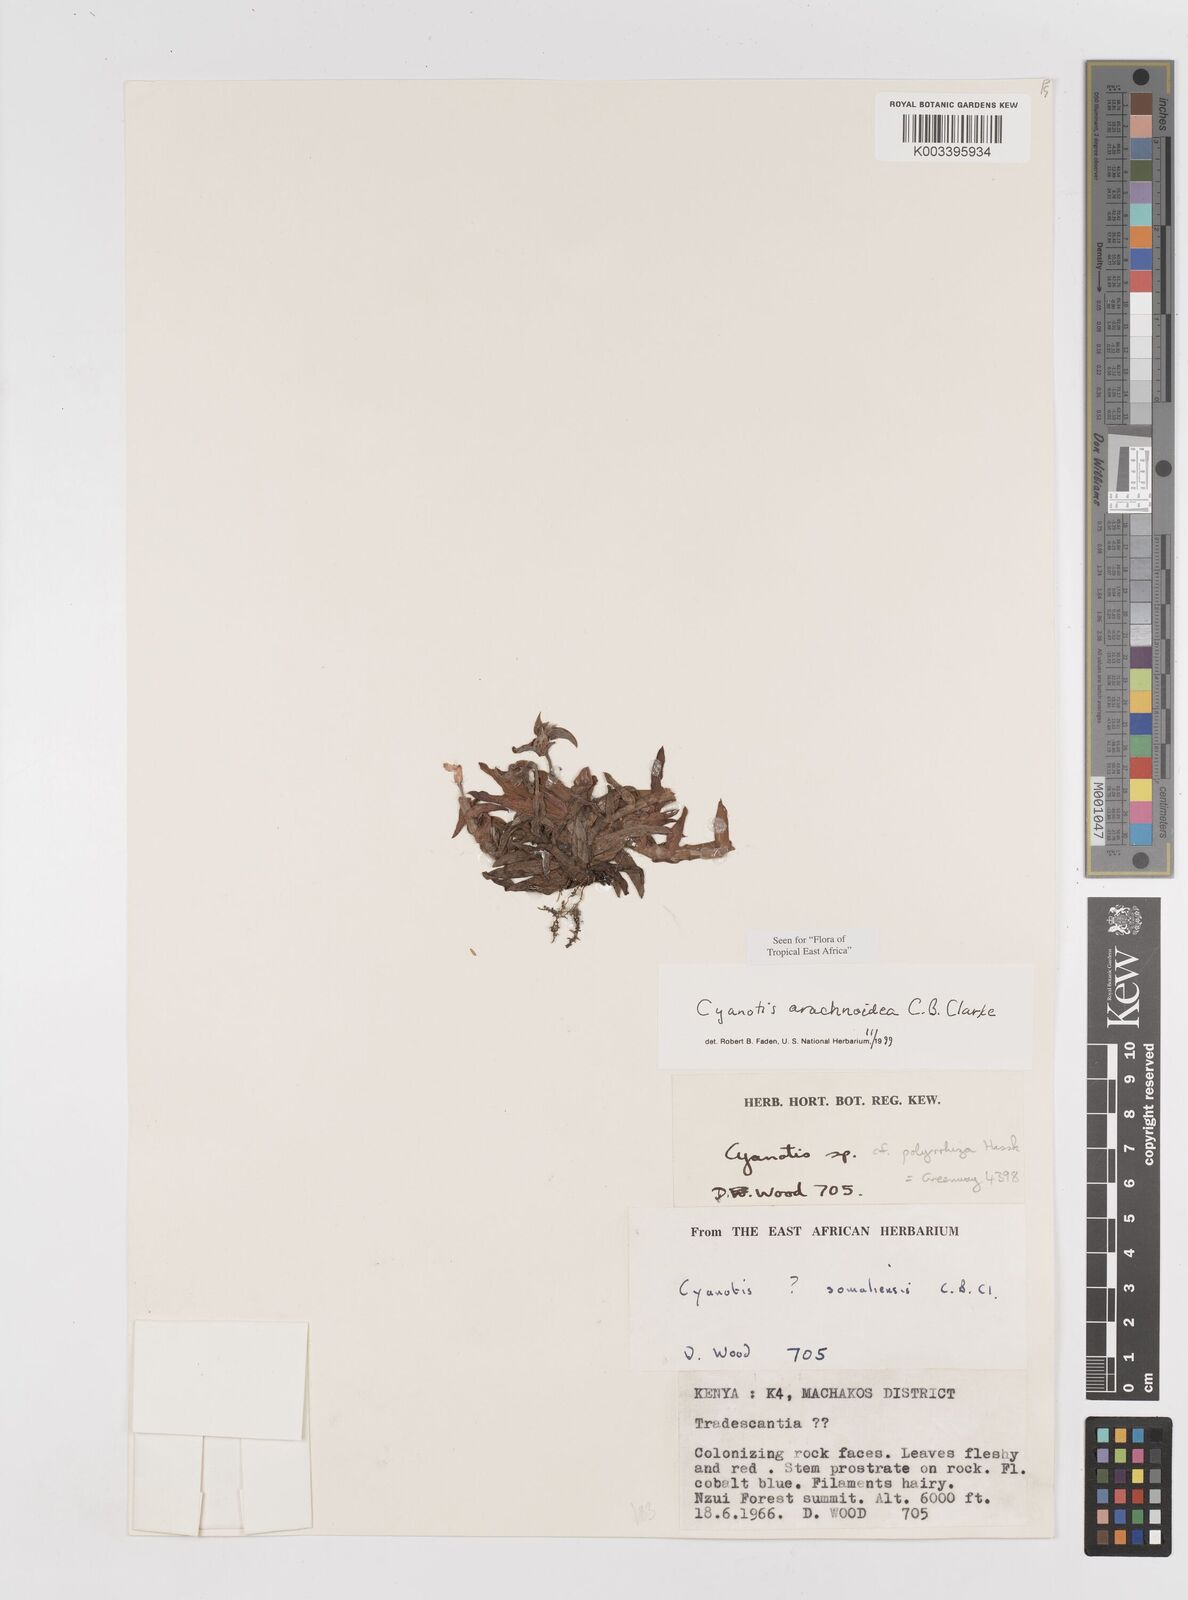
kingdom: Plantae
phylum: Tracheophyta
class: Liliopsida
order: Commelinales
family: Commelinaceae
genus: Cyanotis
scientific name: Cyanotis arachnoidea
